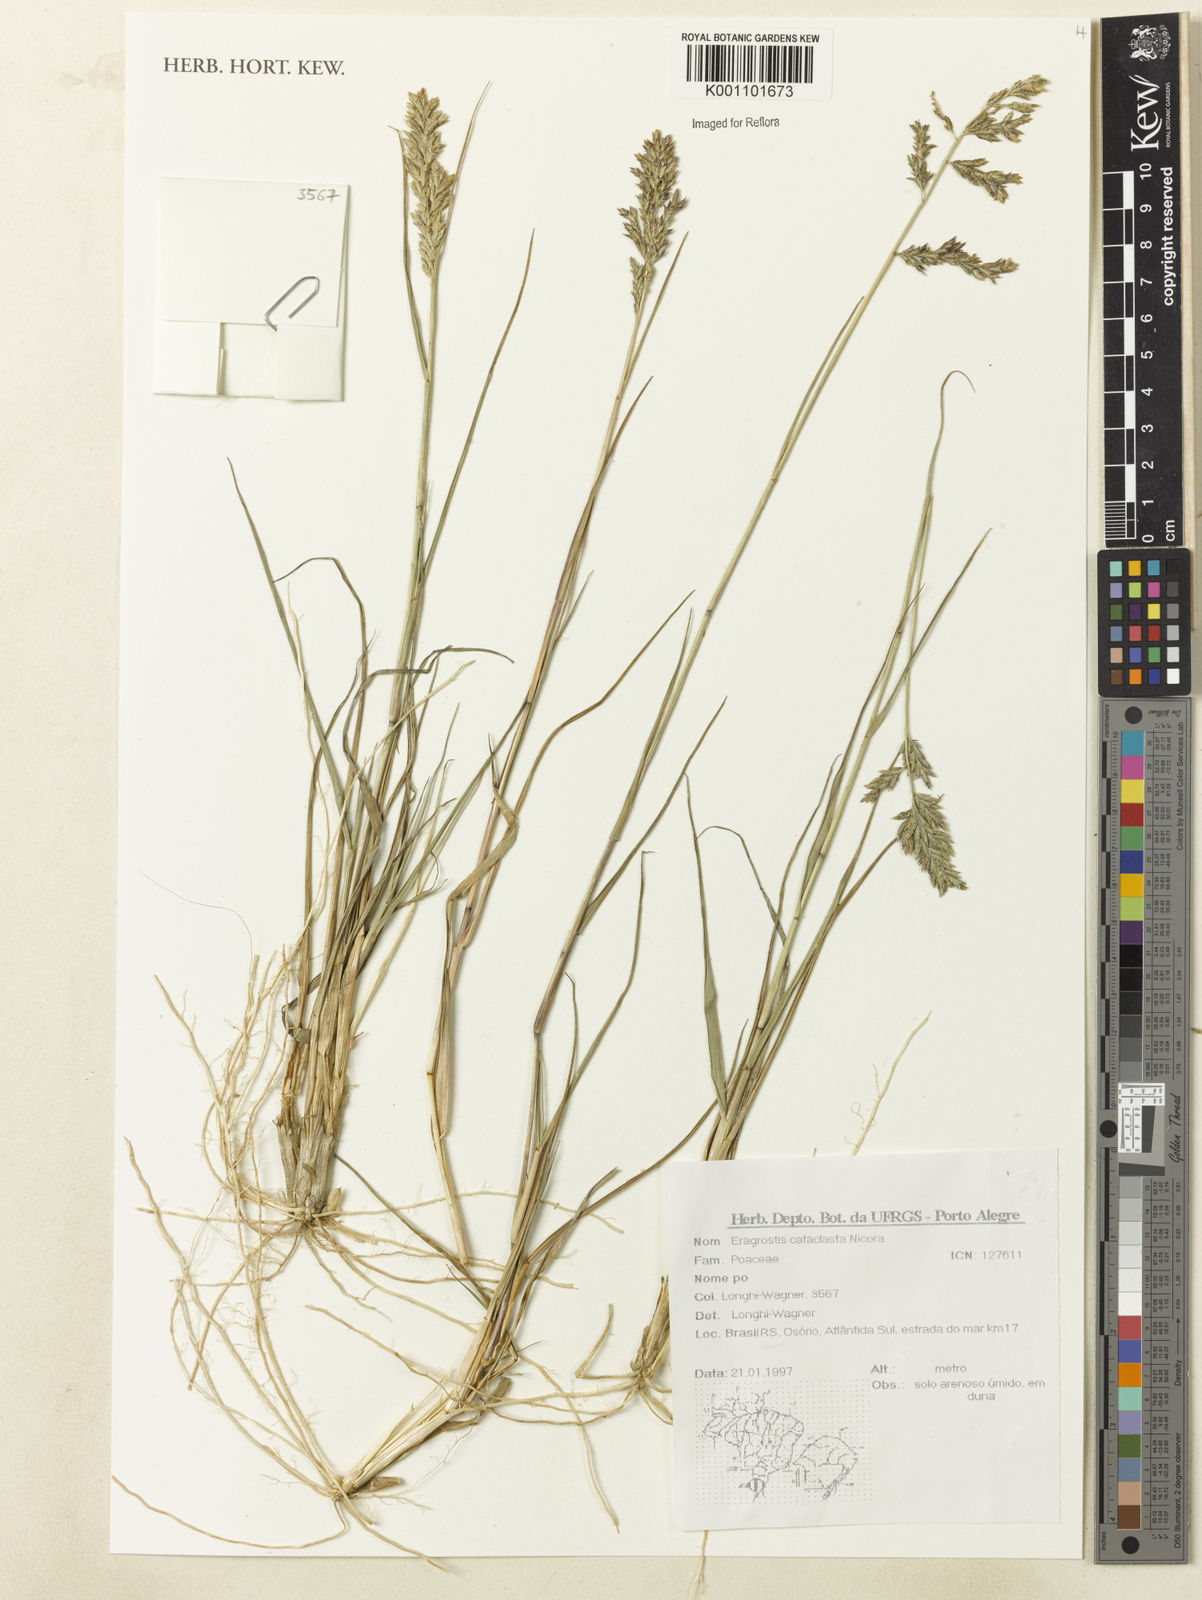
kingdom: Plantae
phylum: Tracheophyta
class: Liliopsida
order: Poales
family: Poaceae
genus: Eragrostis
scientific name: Eragrostis cataclasta
